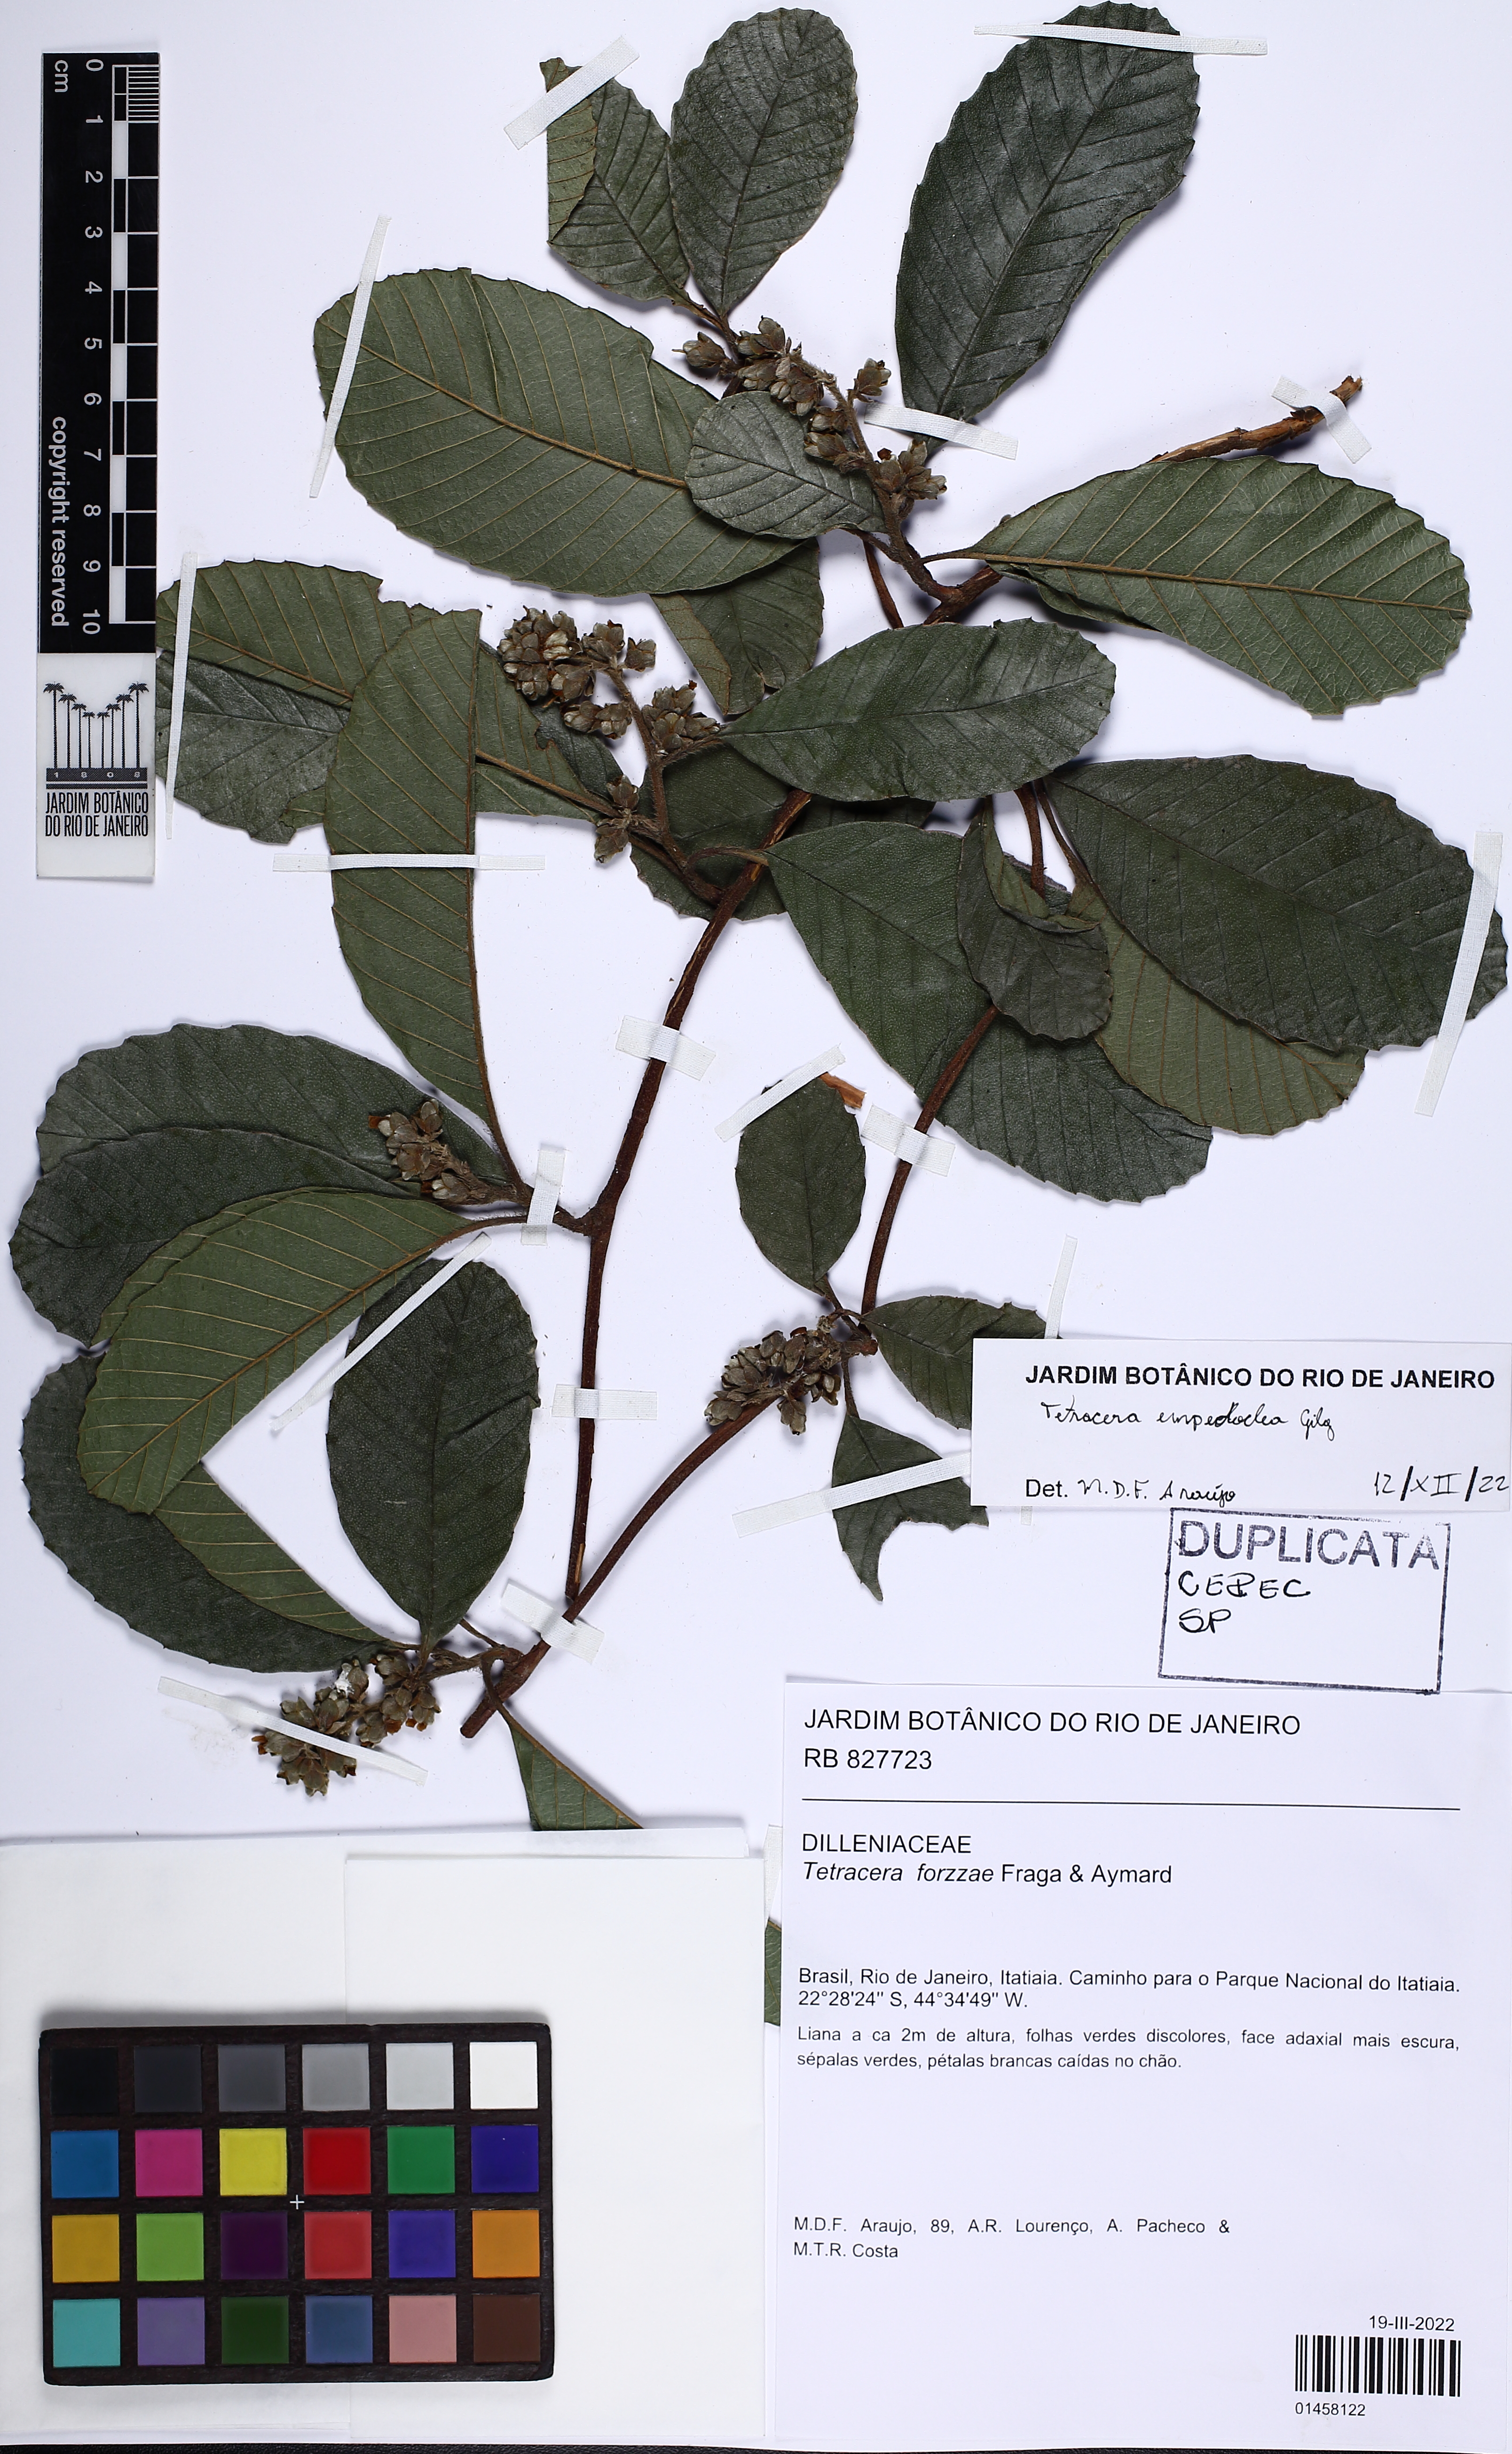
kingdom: Plantae
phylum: Tracheophyta
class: Magnoliopsida
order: Dilleniales
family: Dilleniaceae
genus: Tetracera
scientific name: Tetracera empedoclea
